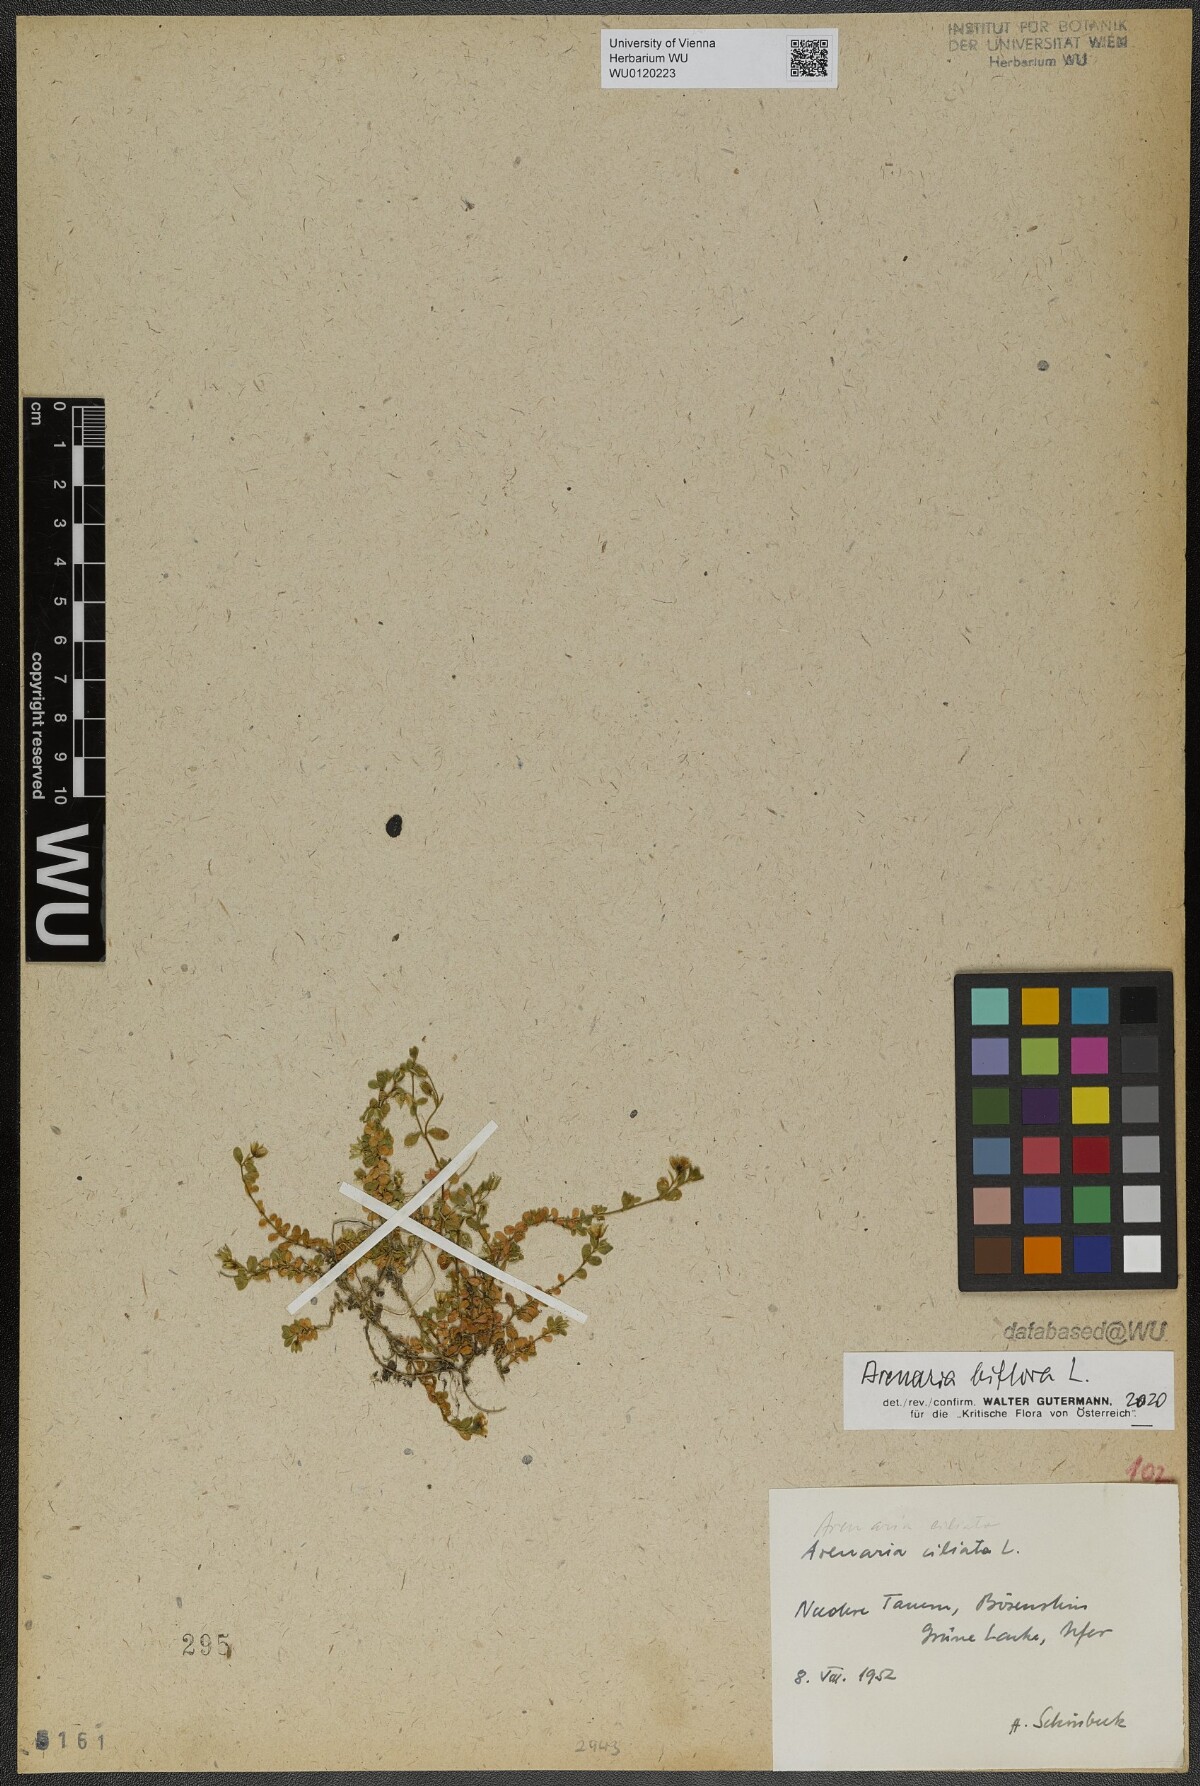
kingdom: Plantae
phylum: Tracheophyta
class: Magnoliopsida
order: Caryophyllales
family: Caryophyllaceae
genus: Arenaria
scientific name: Arenaria biflora
